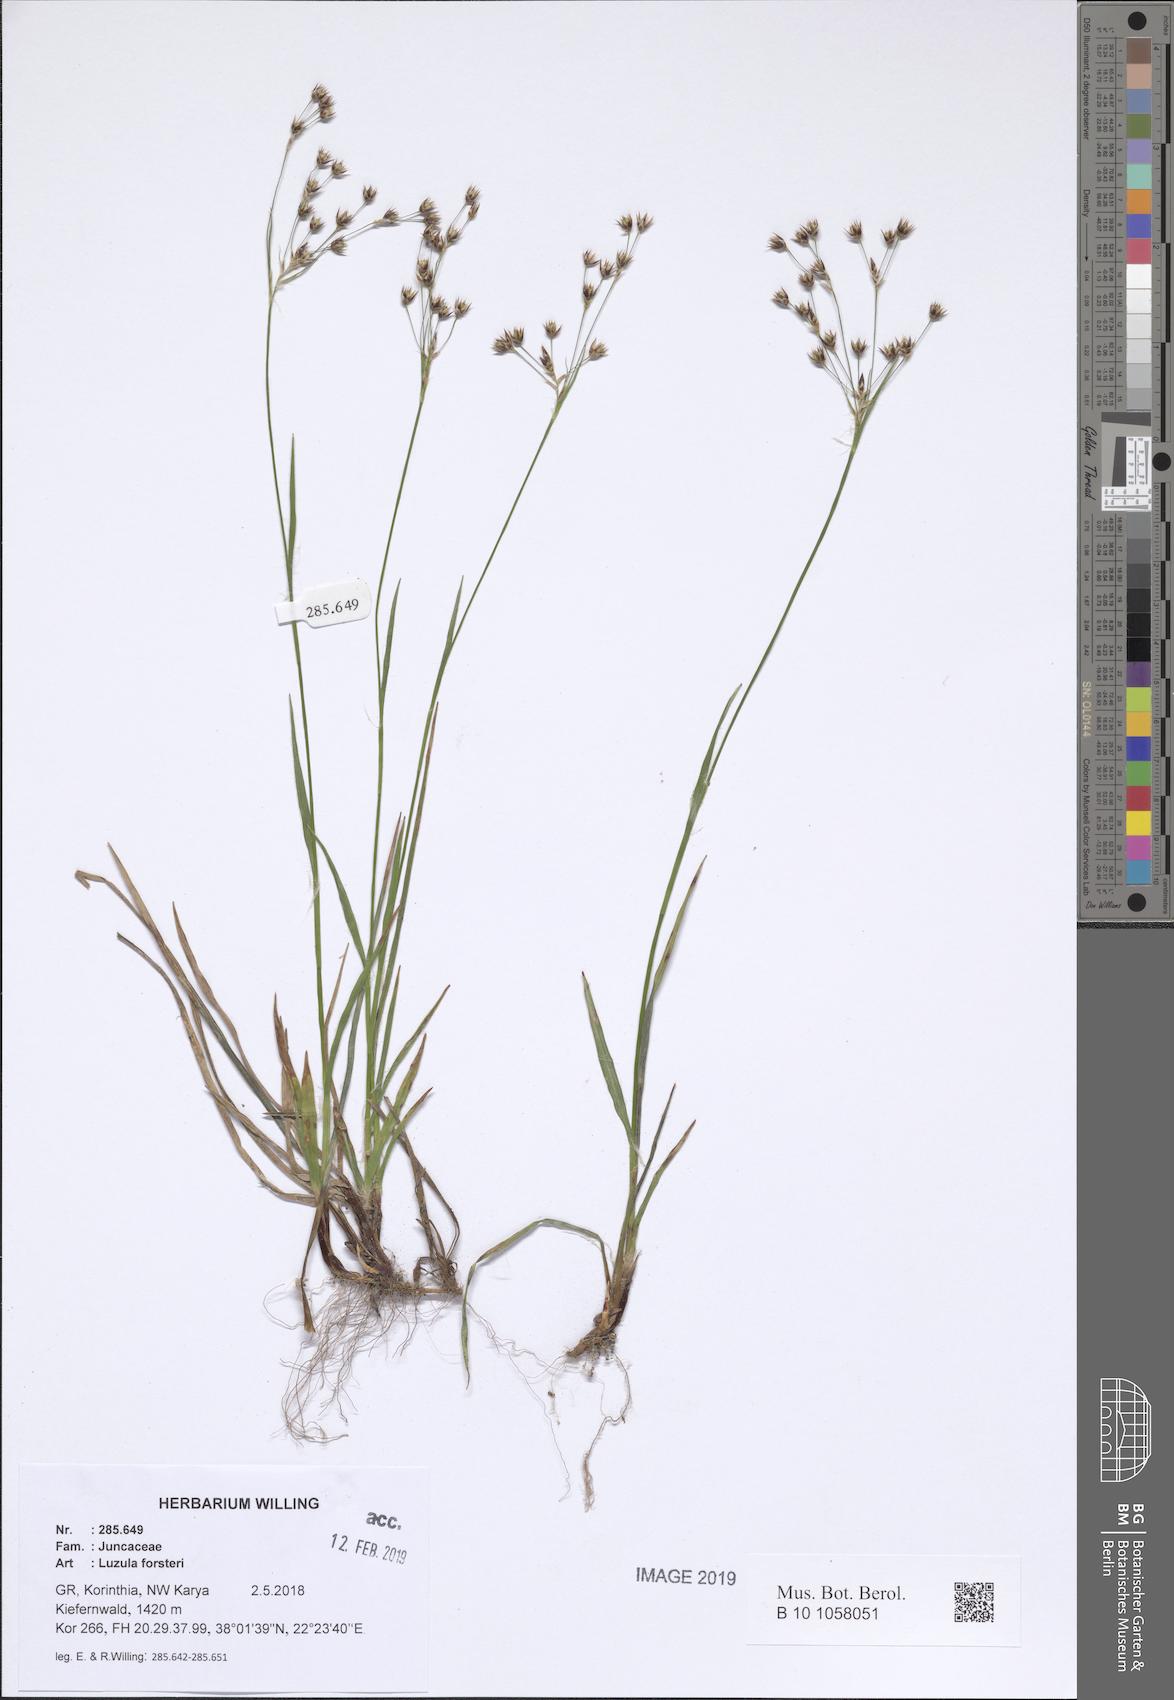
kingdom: Plantae
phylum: Tracheophyta
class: Liliopsida
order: Poales
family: Juncaceae
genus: Luzula
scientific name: Luzula forsteri
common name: Southern wood-rush
